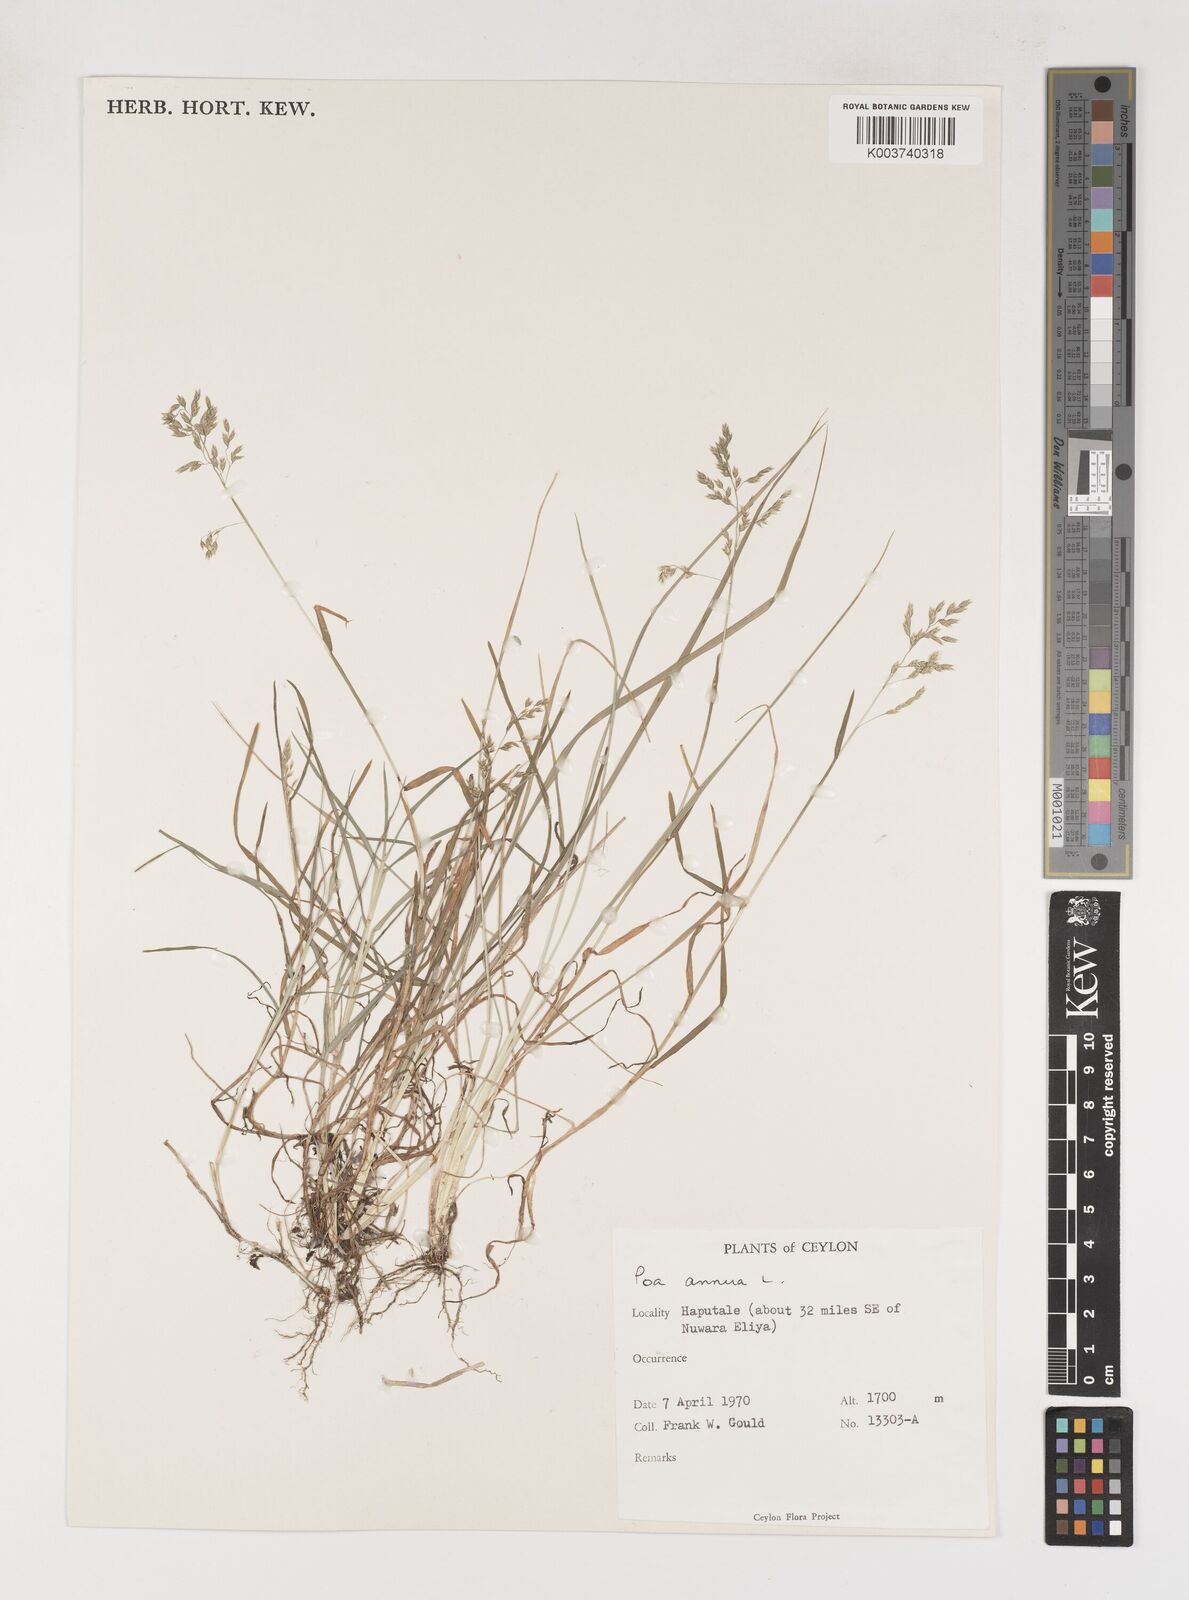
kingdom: Plantae
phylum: Tracheophyta
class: Liliopsida
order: Poales
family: Poaceae
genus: Poa
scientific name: Poa annua
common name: Annual bluegrass
